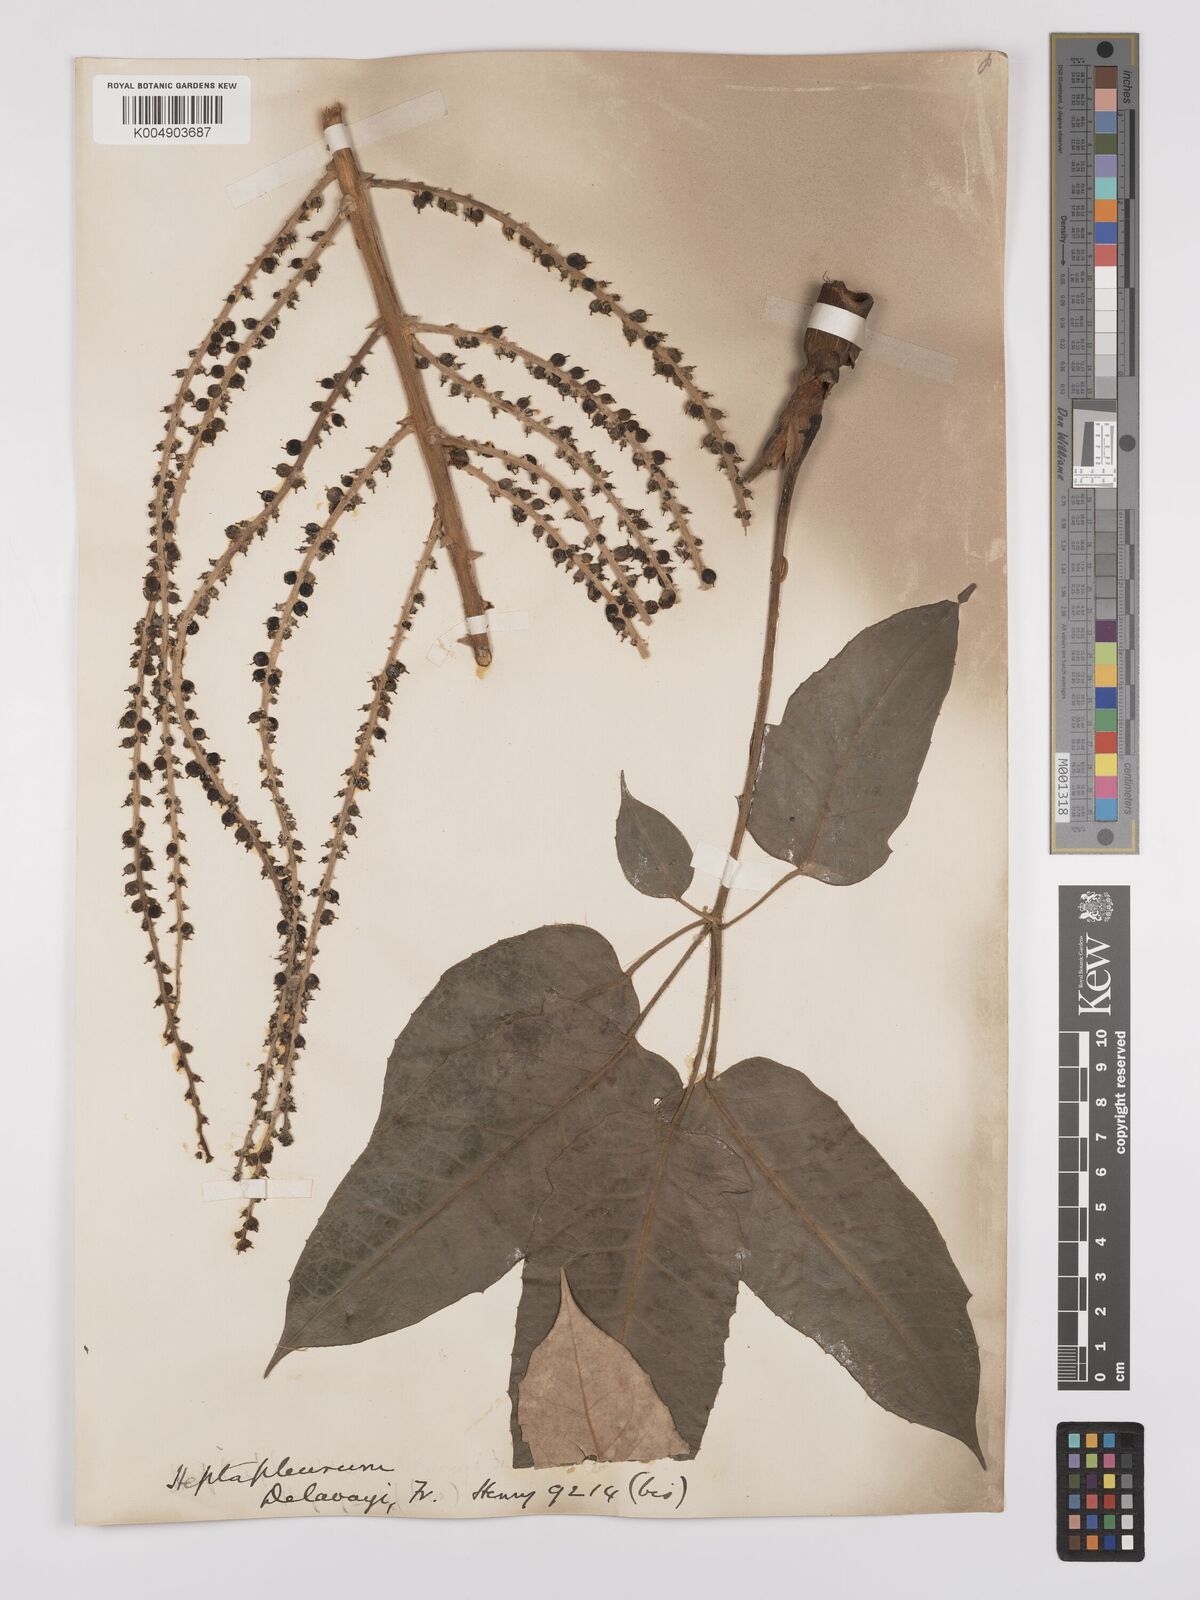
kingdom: Plantae
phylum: Tracheophyta
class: Magnoliopsida
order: Apiales
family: Araliaceae
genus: Heptapleurum
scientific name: Heptapleurum delavayi
